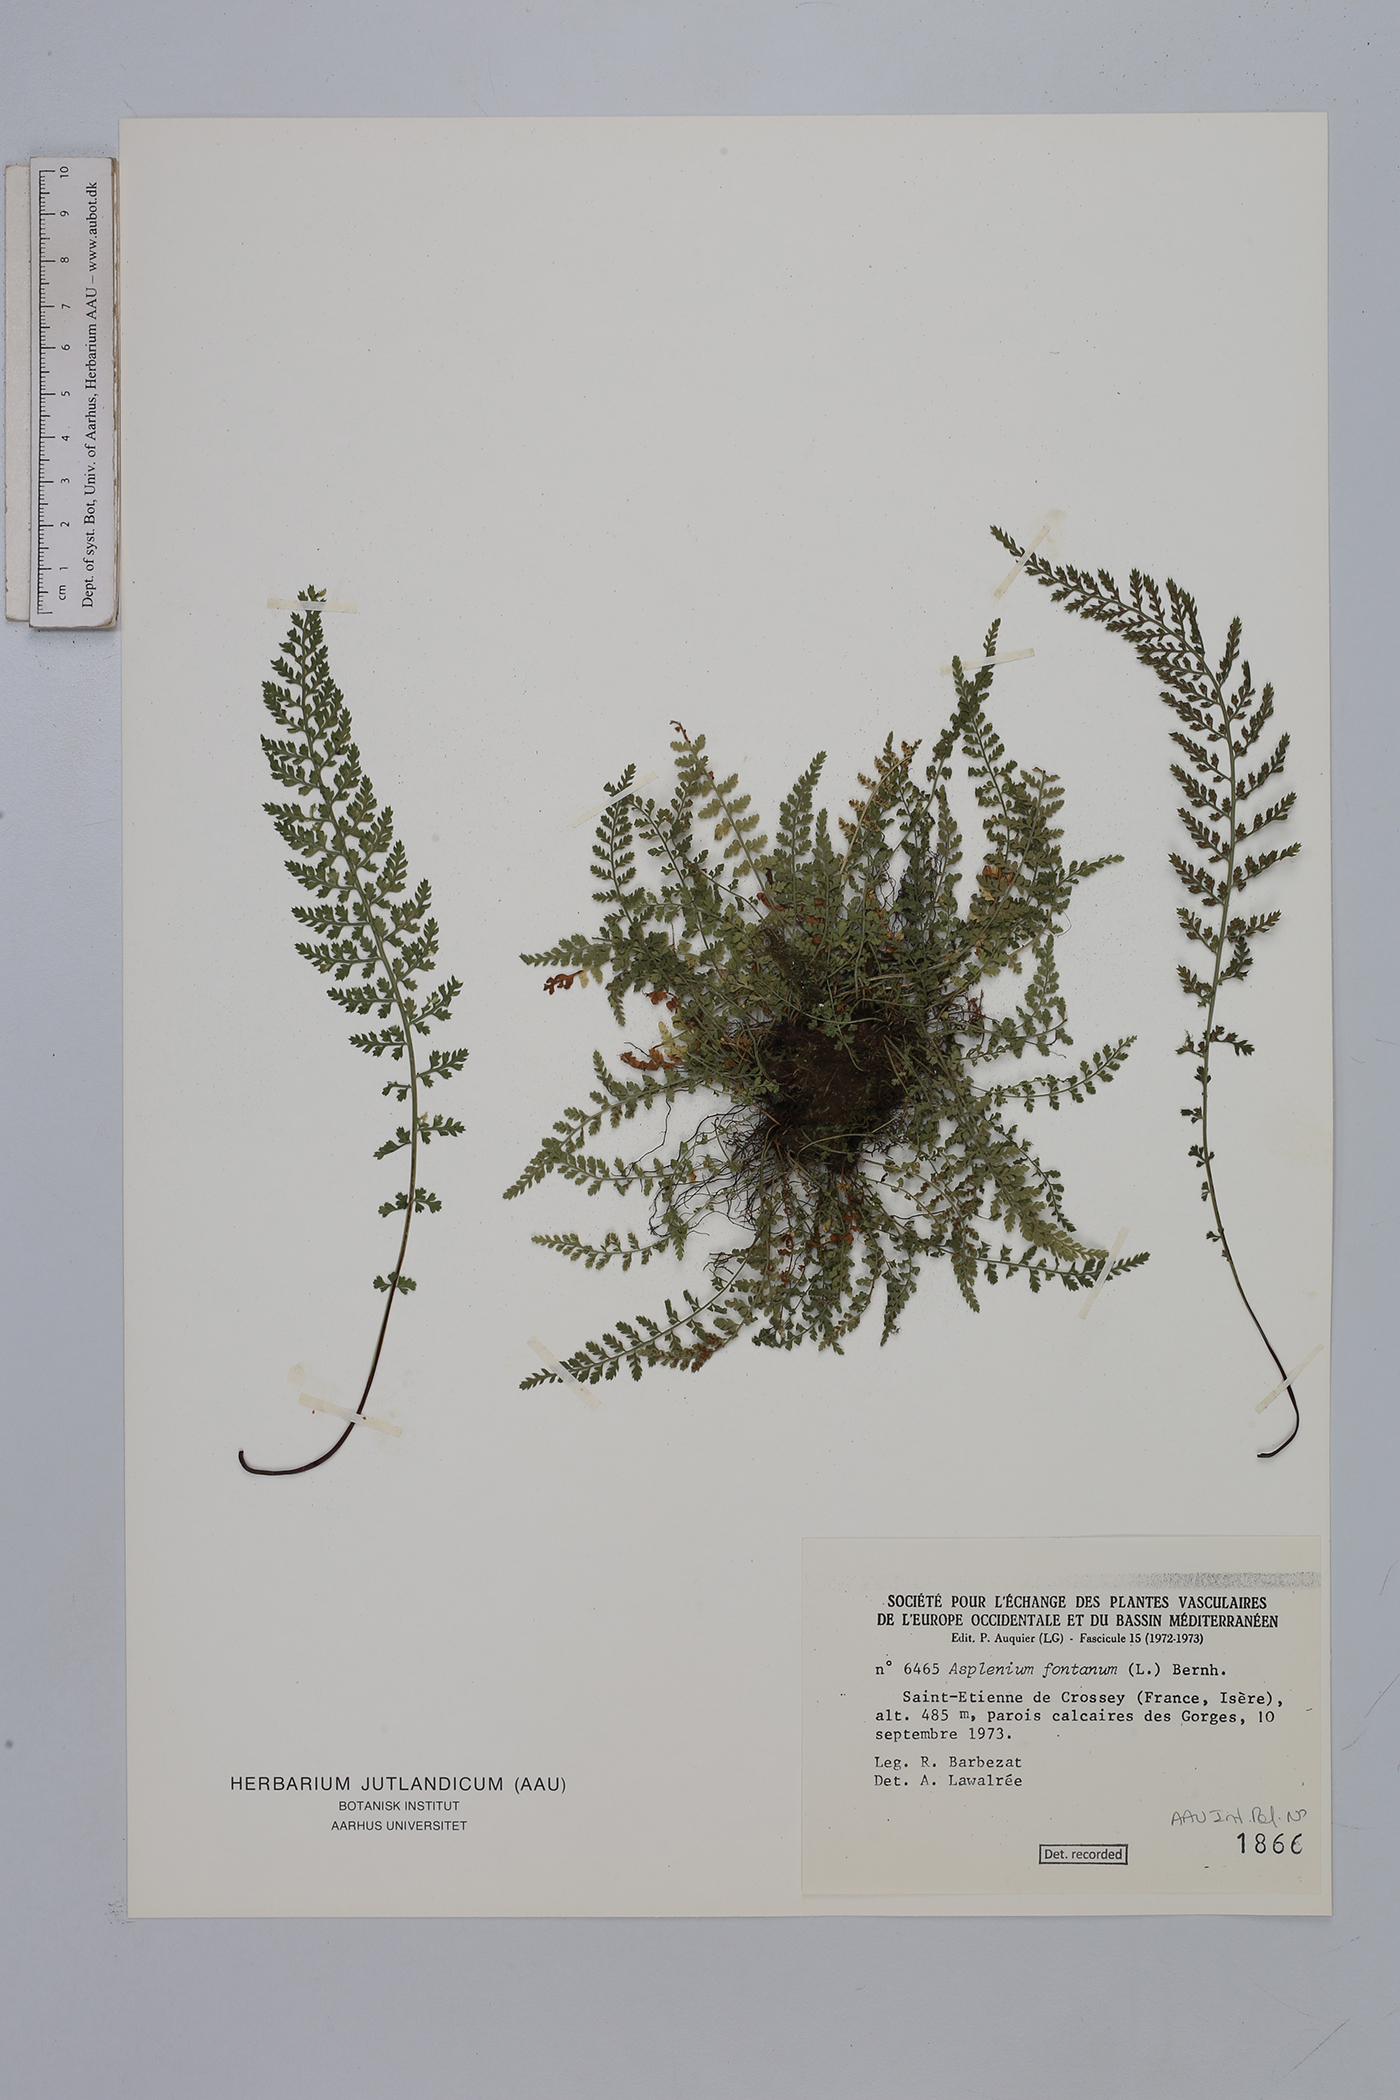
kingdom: Plantae
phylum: Tracheophyta
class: Polypodiopsida
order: Polypodiales
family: Aspleniaceae
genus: Asplenium
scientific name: Asplenium fontanum
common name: Fountain spleenwort
